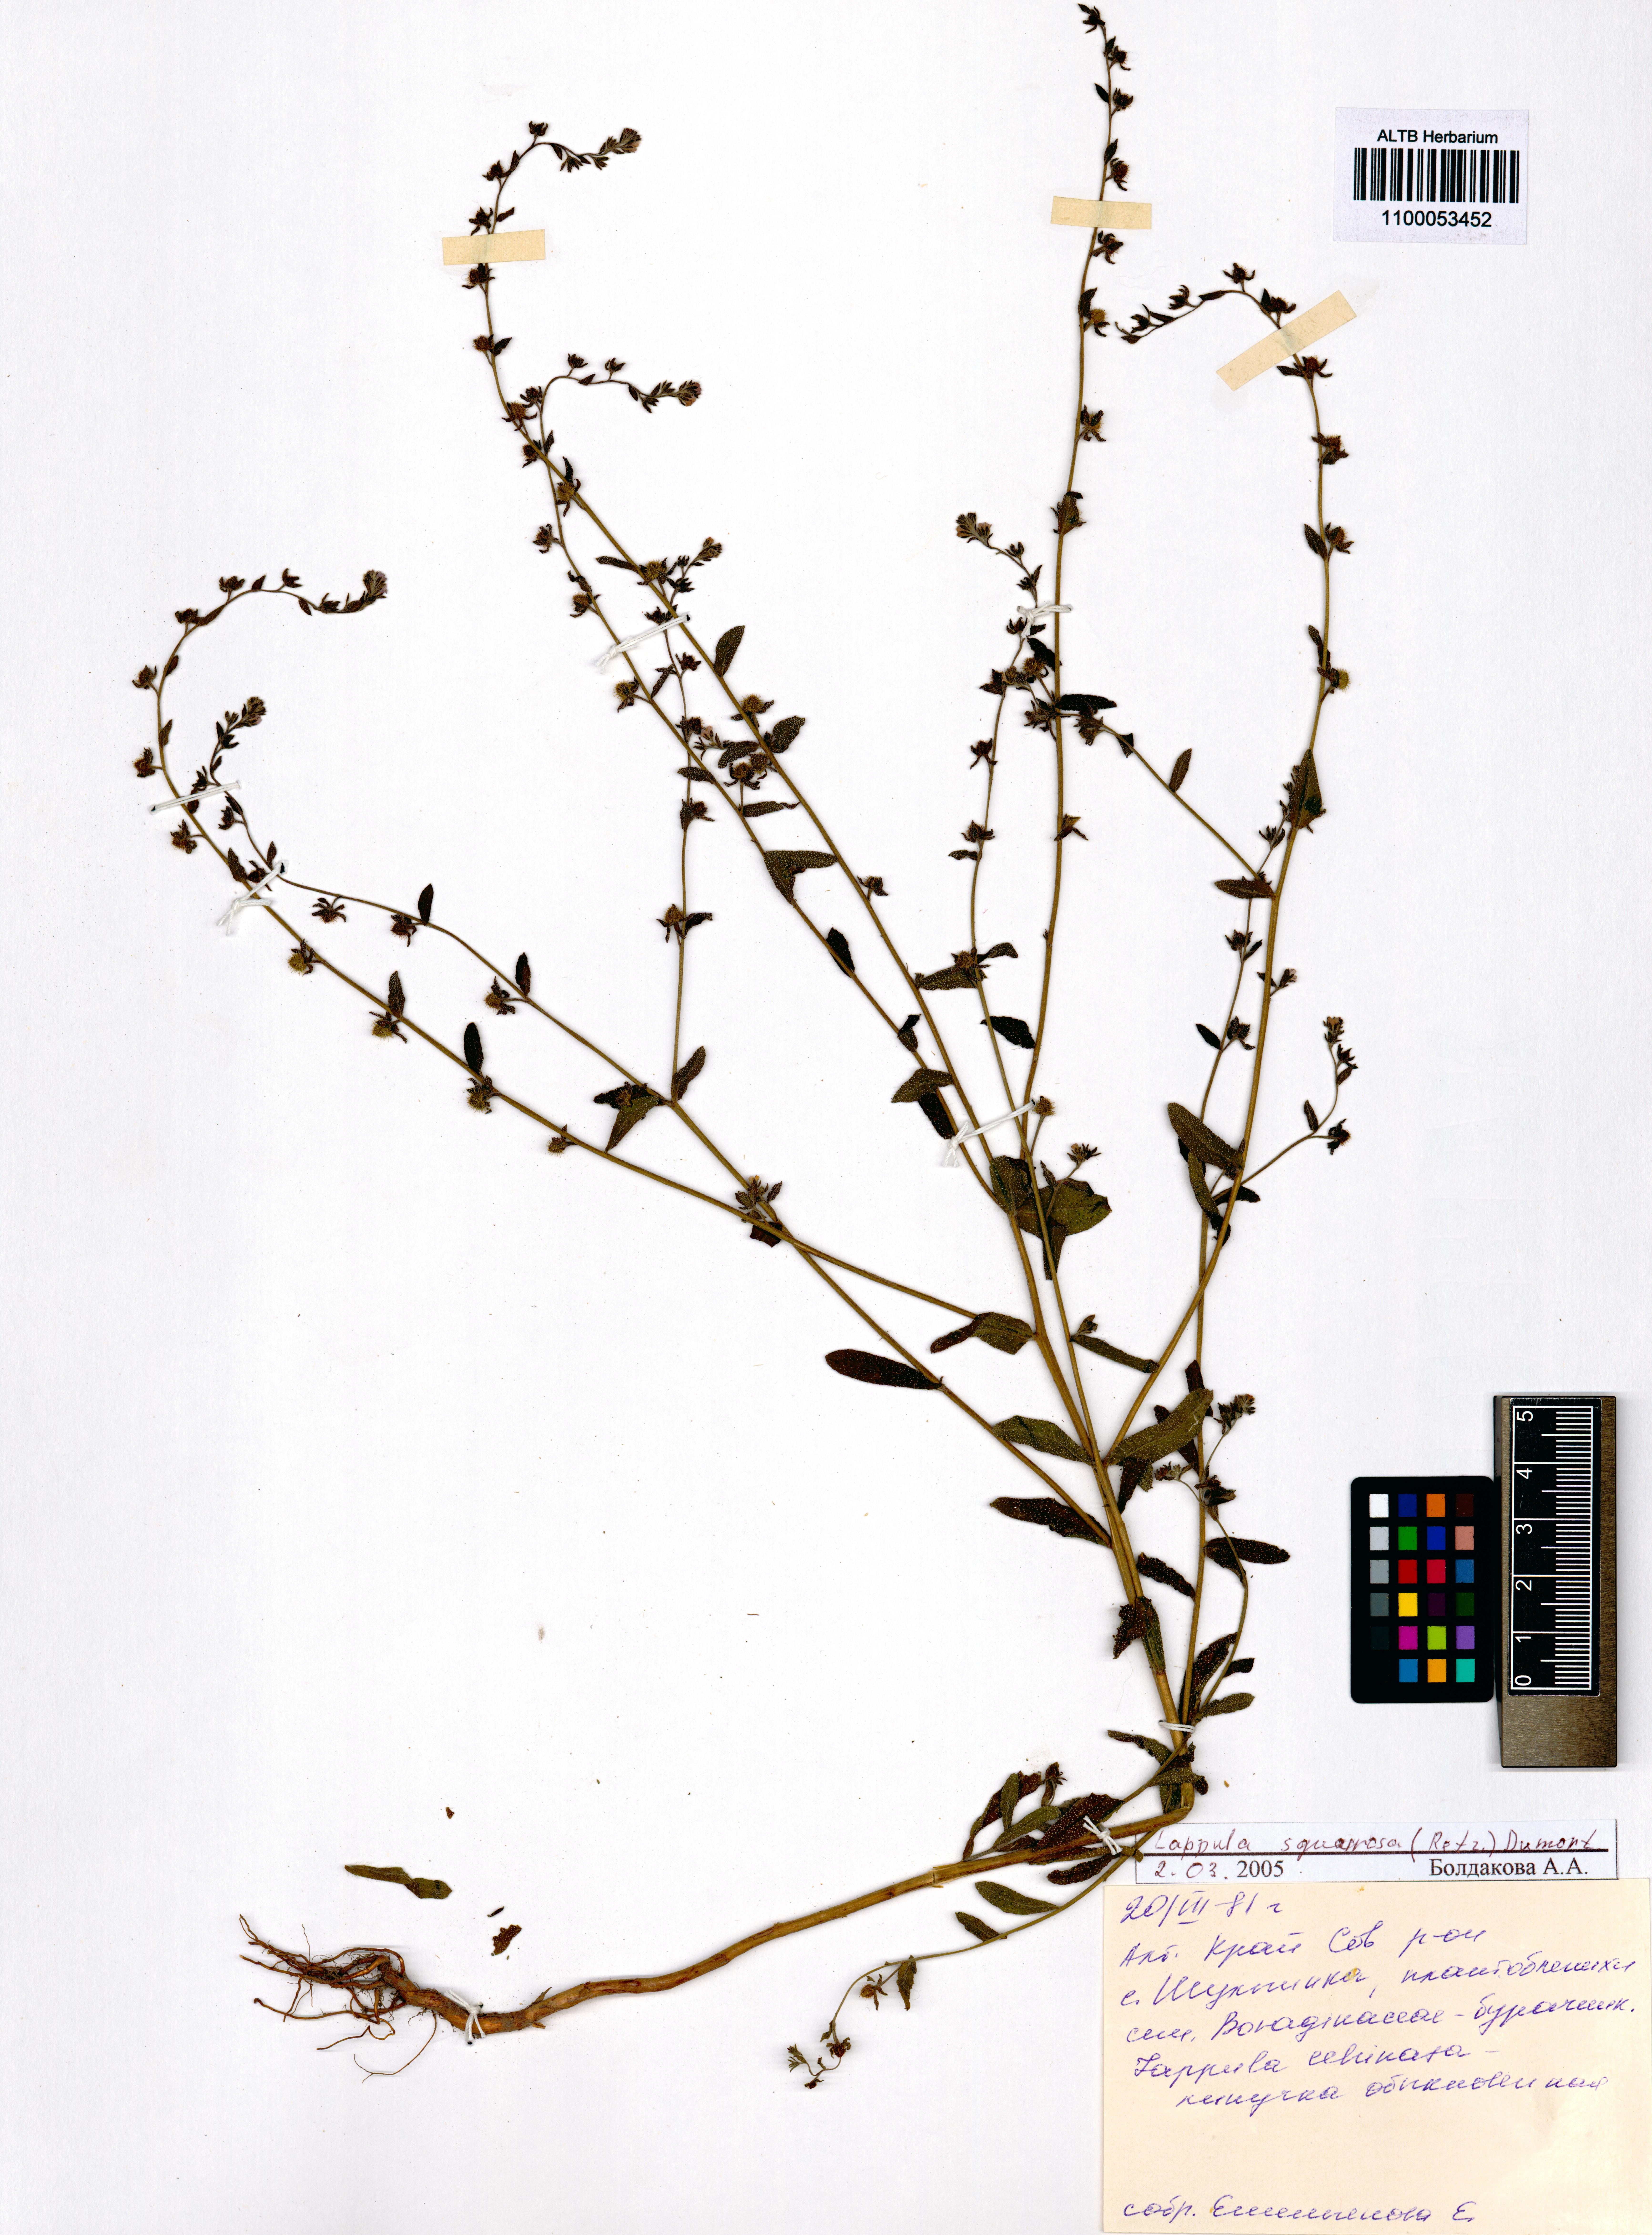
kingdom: Plantae
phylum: Tracheophyta
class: Magnoliopsida
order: Boraginales
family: Boraginaceae
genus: Lappula
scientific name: Lappula squarrosa
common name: European stickseed
